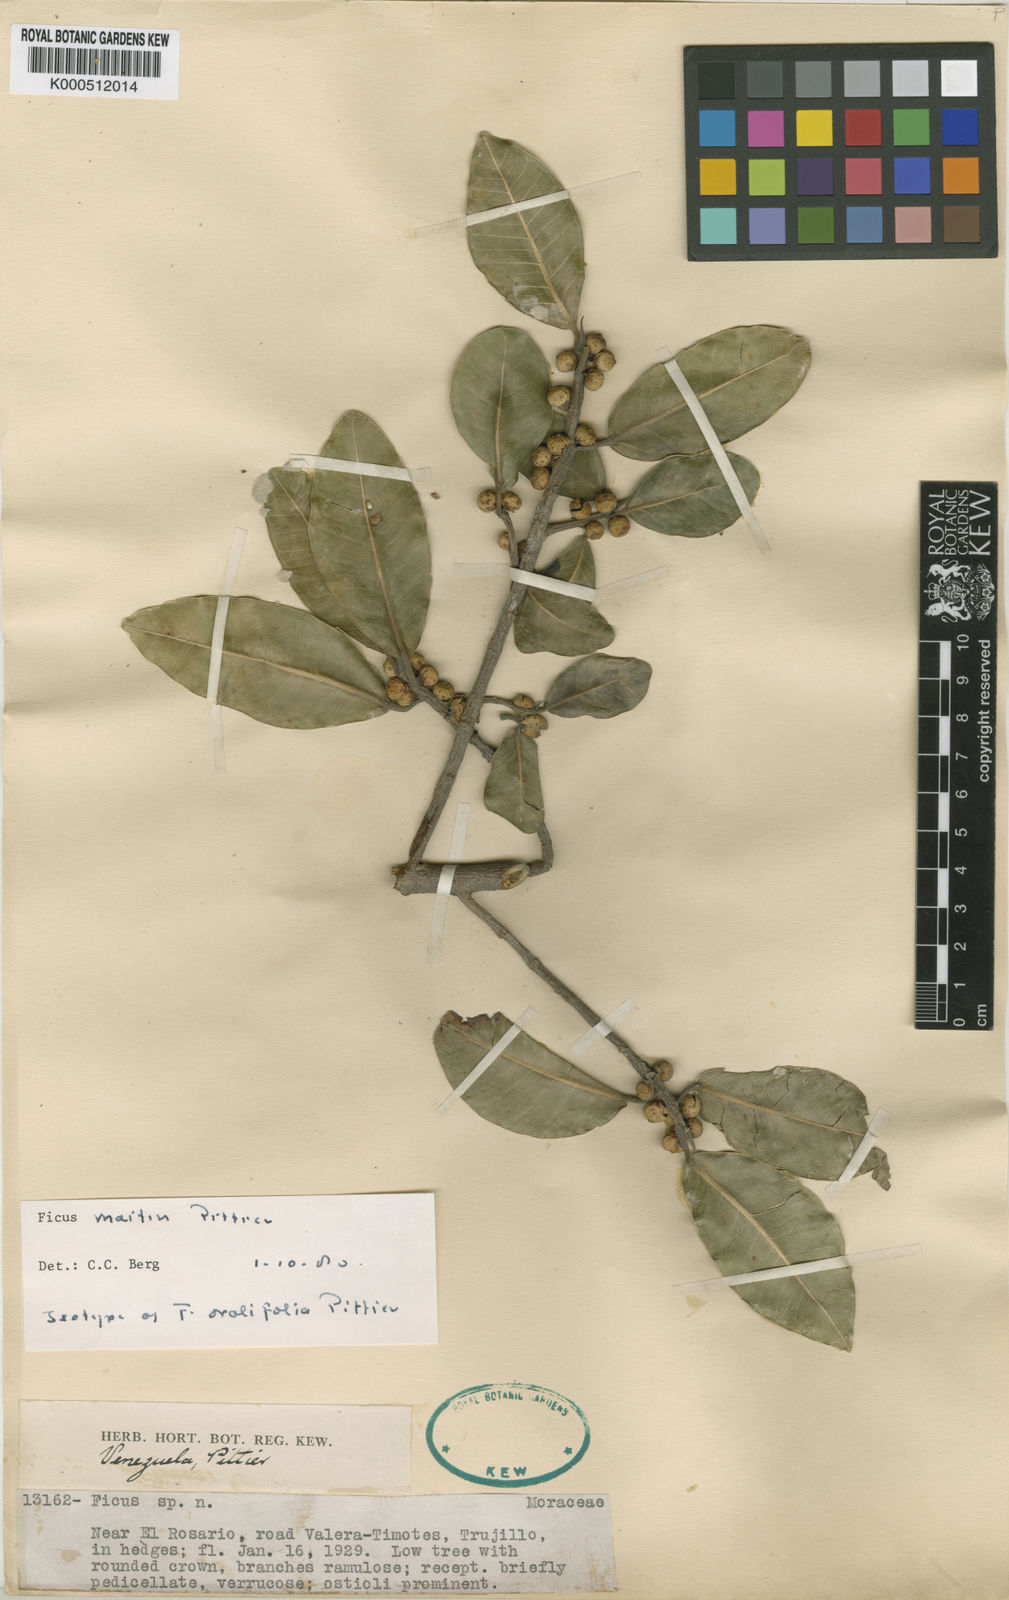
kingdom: Plantae
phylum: Tracheophyta
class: Magnoliopsida
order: Rosales
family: Moraceae
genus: Ficus
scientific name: Ficus maitin
